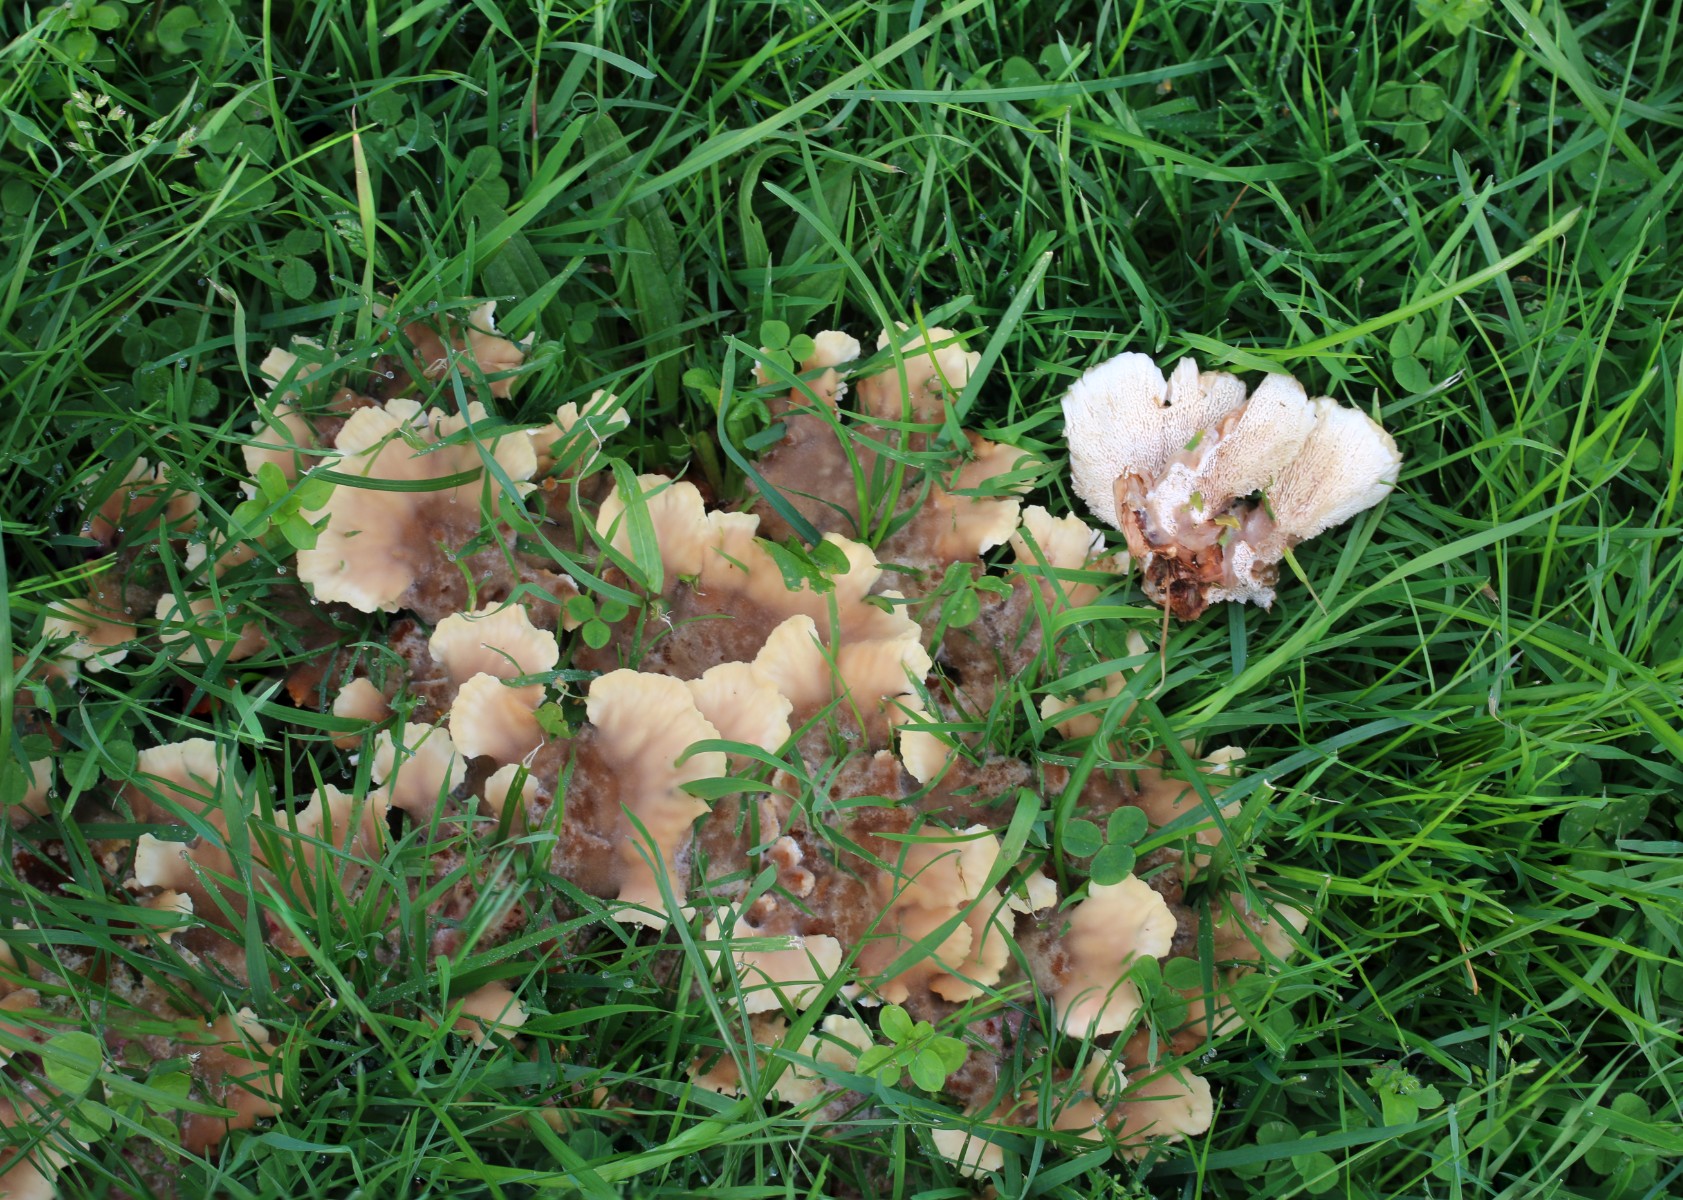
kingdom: Fungi
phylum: Basidiomycota
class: Agaricomycetes
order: Polyporales
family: Podoscyphaceae
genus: Abortiporus
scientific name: Abortiporus biennis
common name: rødmende pjalteporesvamp
